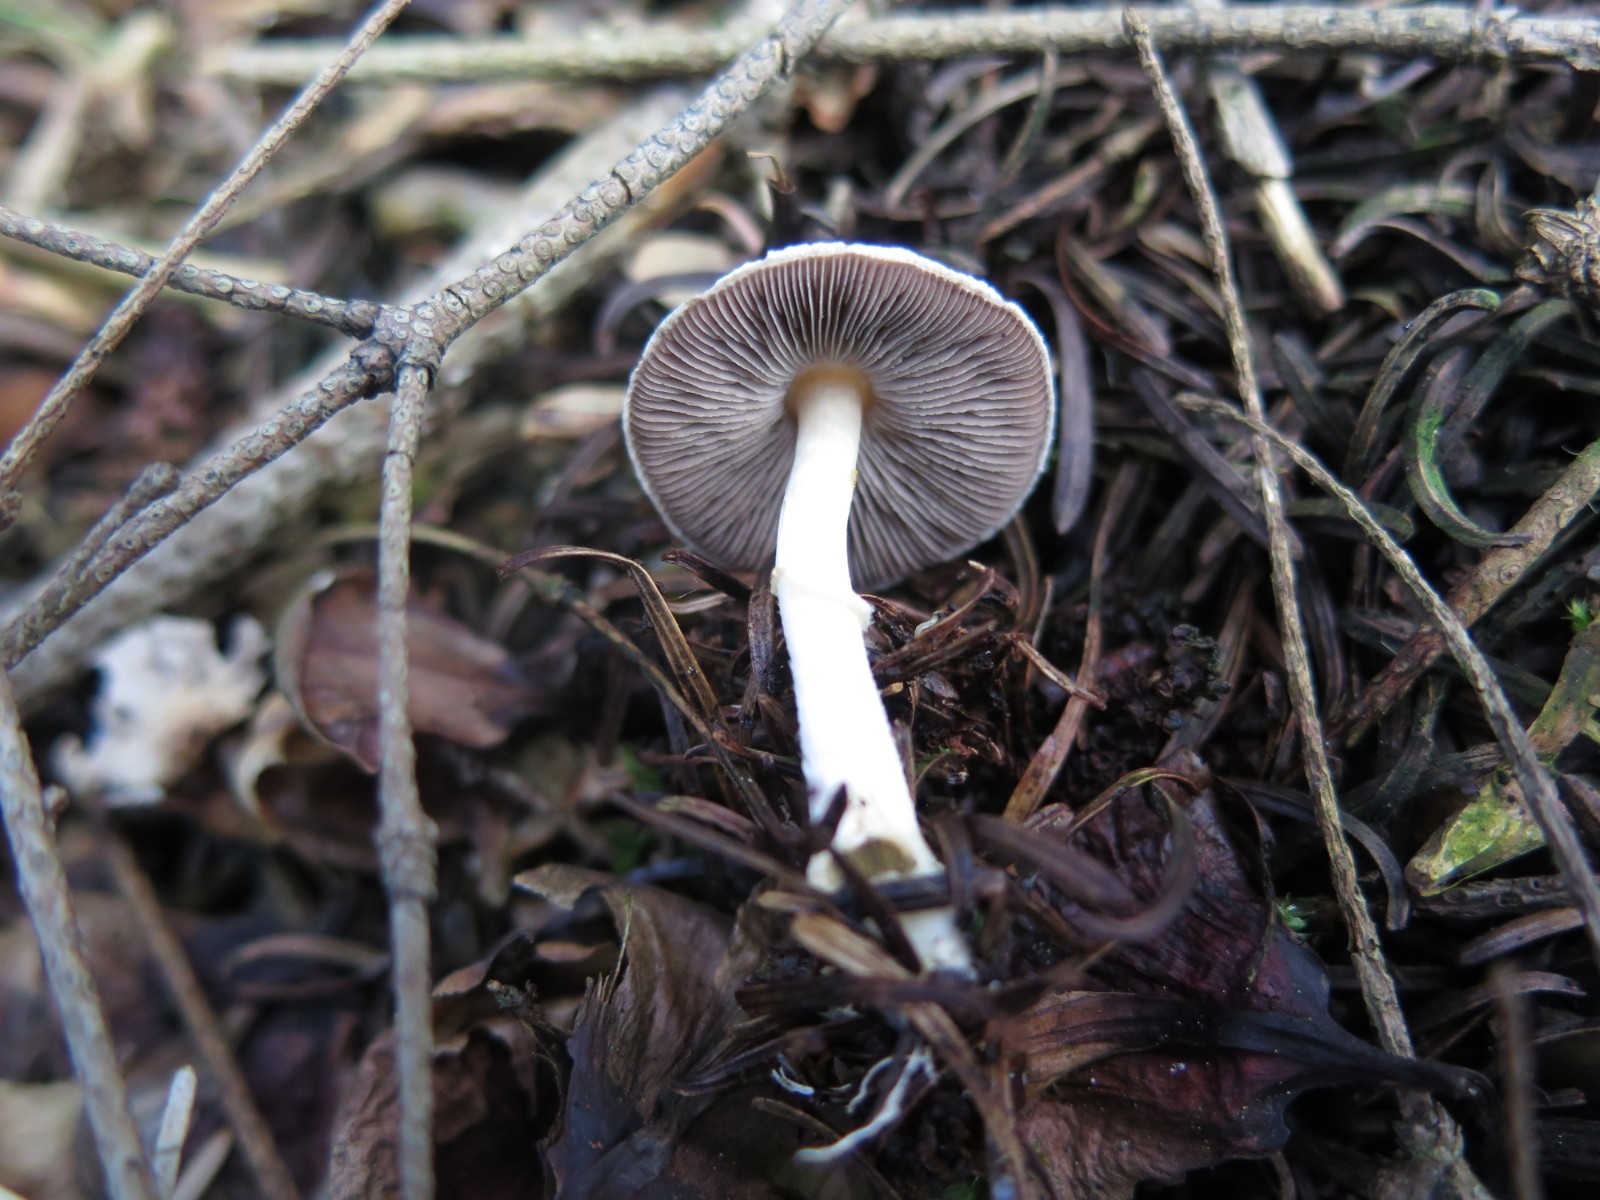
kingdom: Fungi
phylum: Basidiomycota
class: Agaricomycetes
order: Agaricales
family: Agaricaceae
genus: Agaricus
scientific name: Agaricus dulcidulus
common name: blegrød champignon
